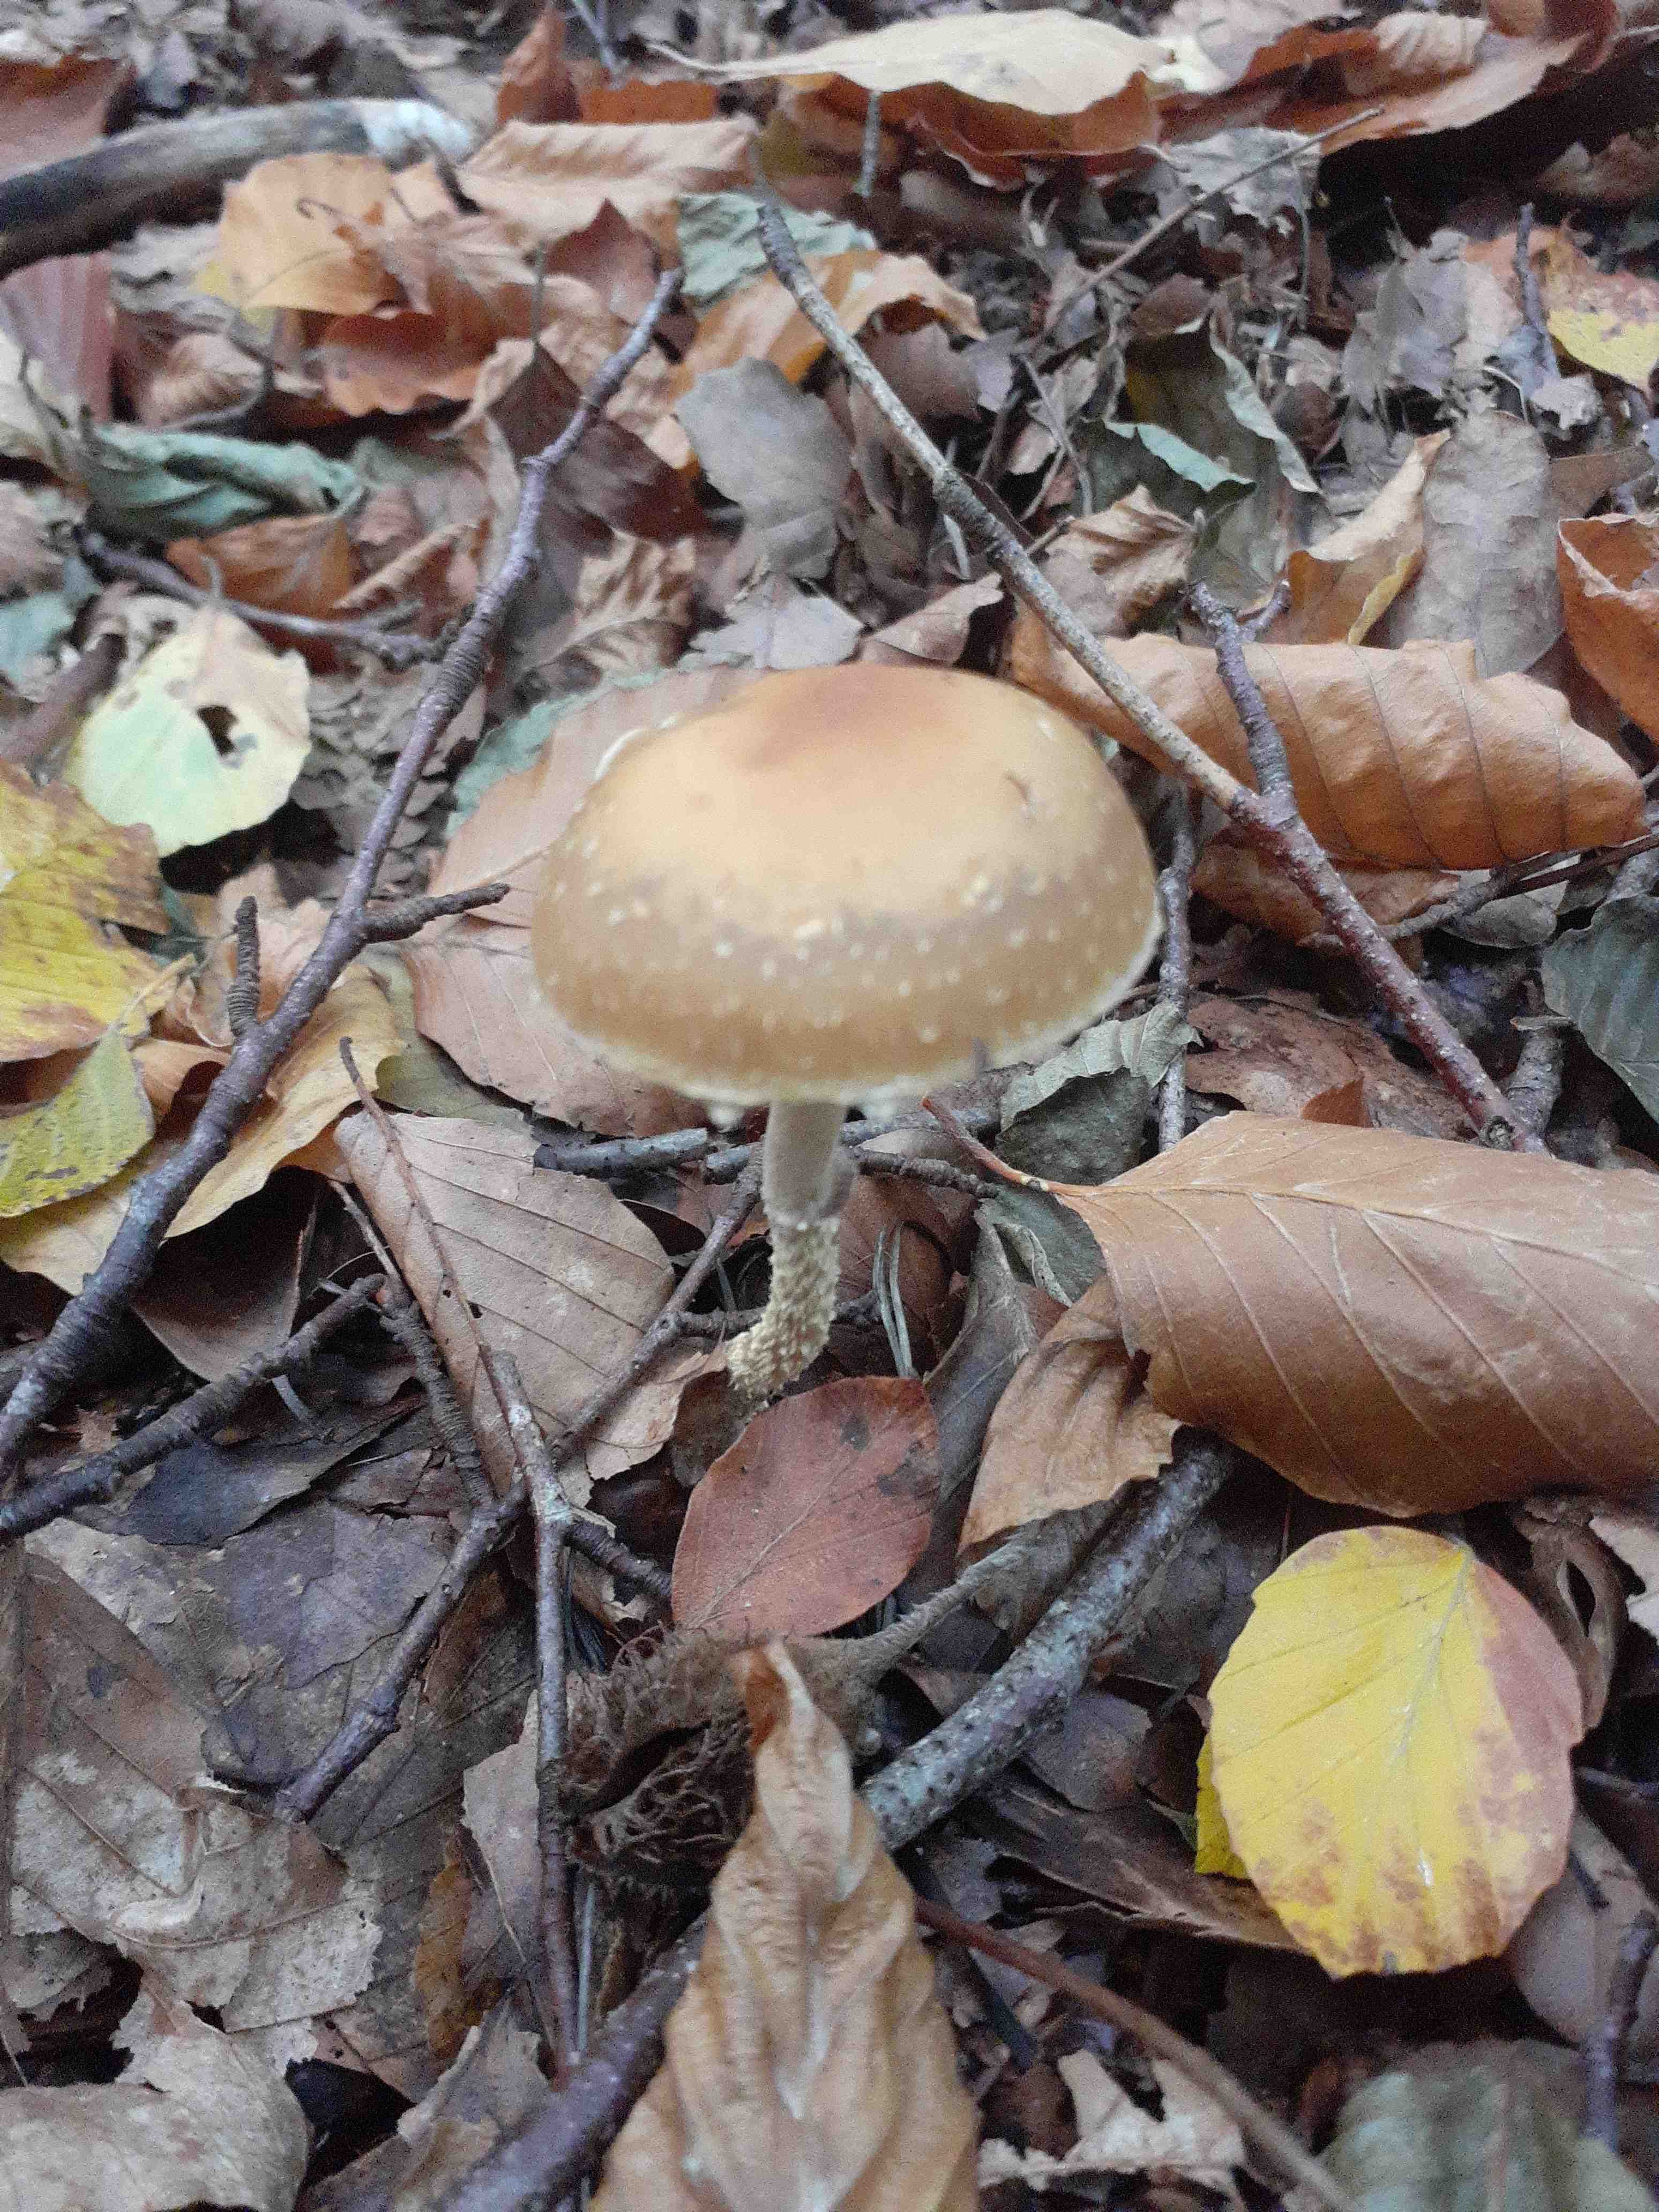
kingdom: Fungi
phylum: Basidiomycota
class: Agaricomycetes
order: Agaricales
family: Strophariaceae
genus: Leratiomyces
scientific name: Leratiomyces squamosus
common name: skællet bredblad
